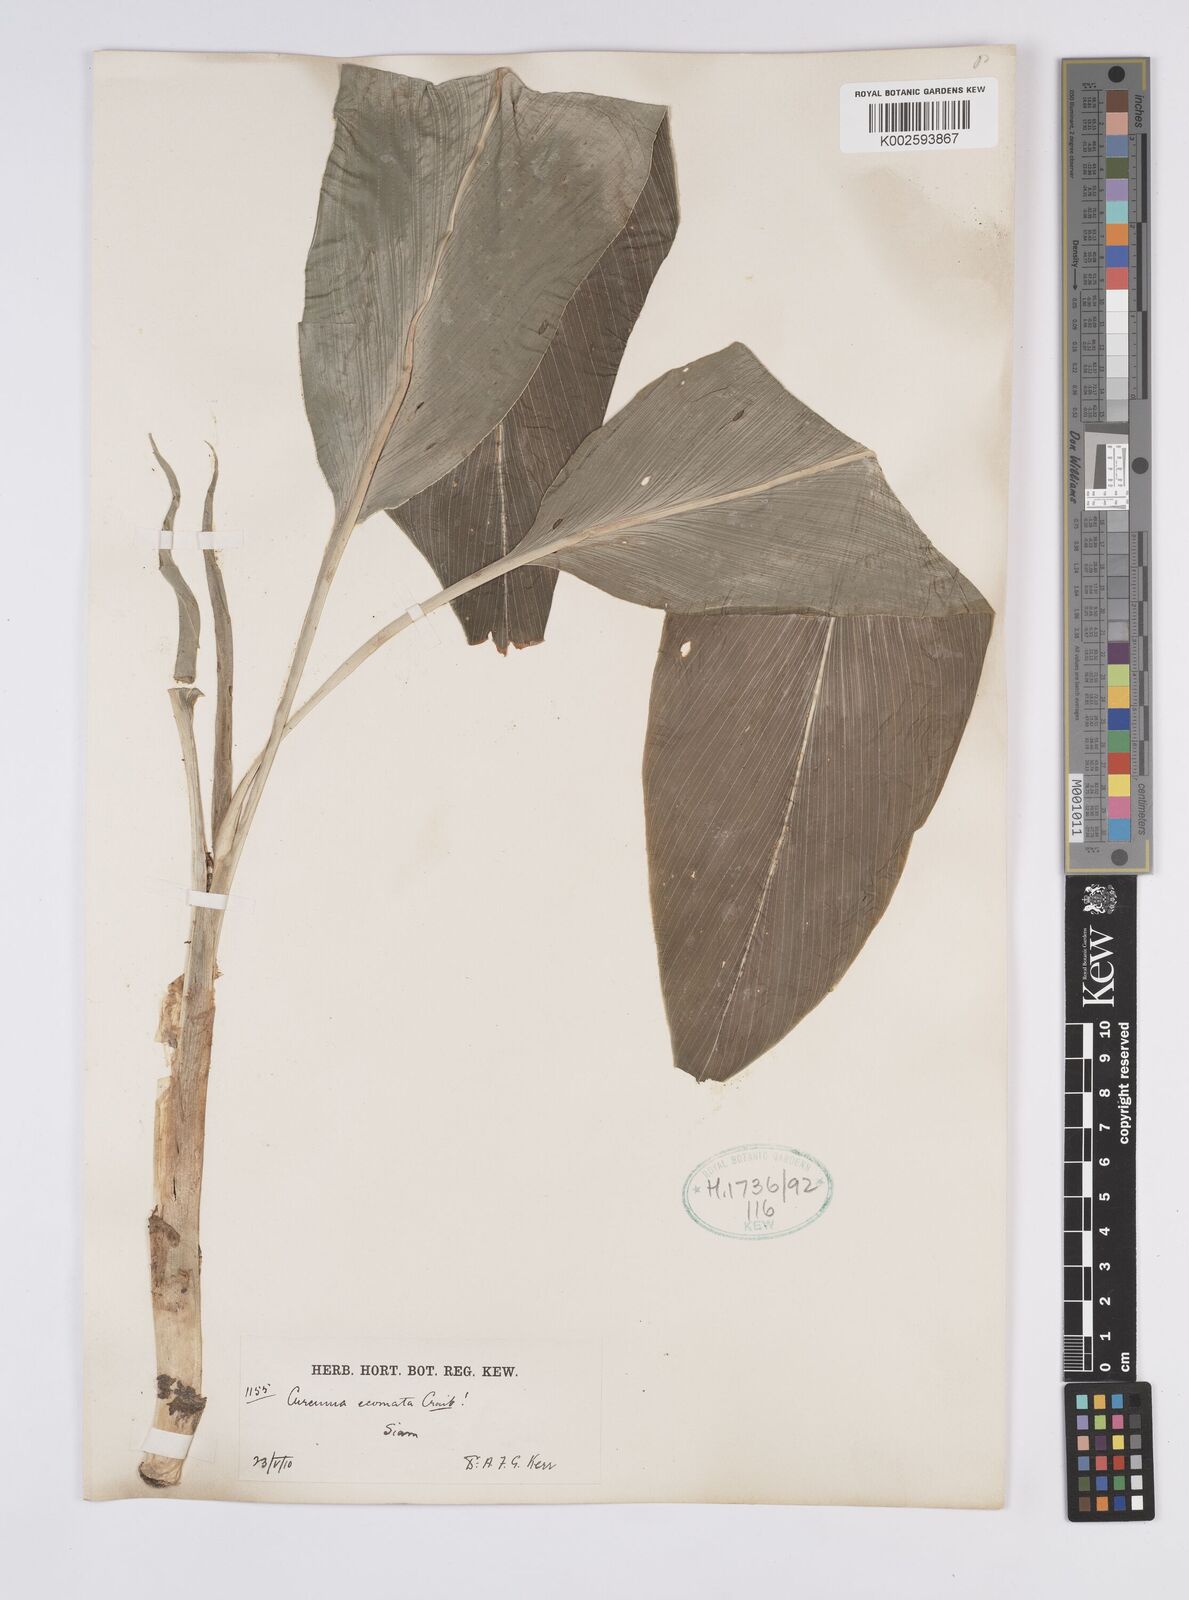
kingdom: Plantae
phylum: Tracheophyta
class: Liliopsida
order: Zingiberales
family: Zingiberaceae
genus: Curcuma
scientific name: Curcuma colorata
